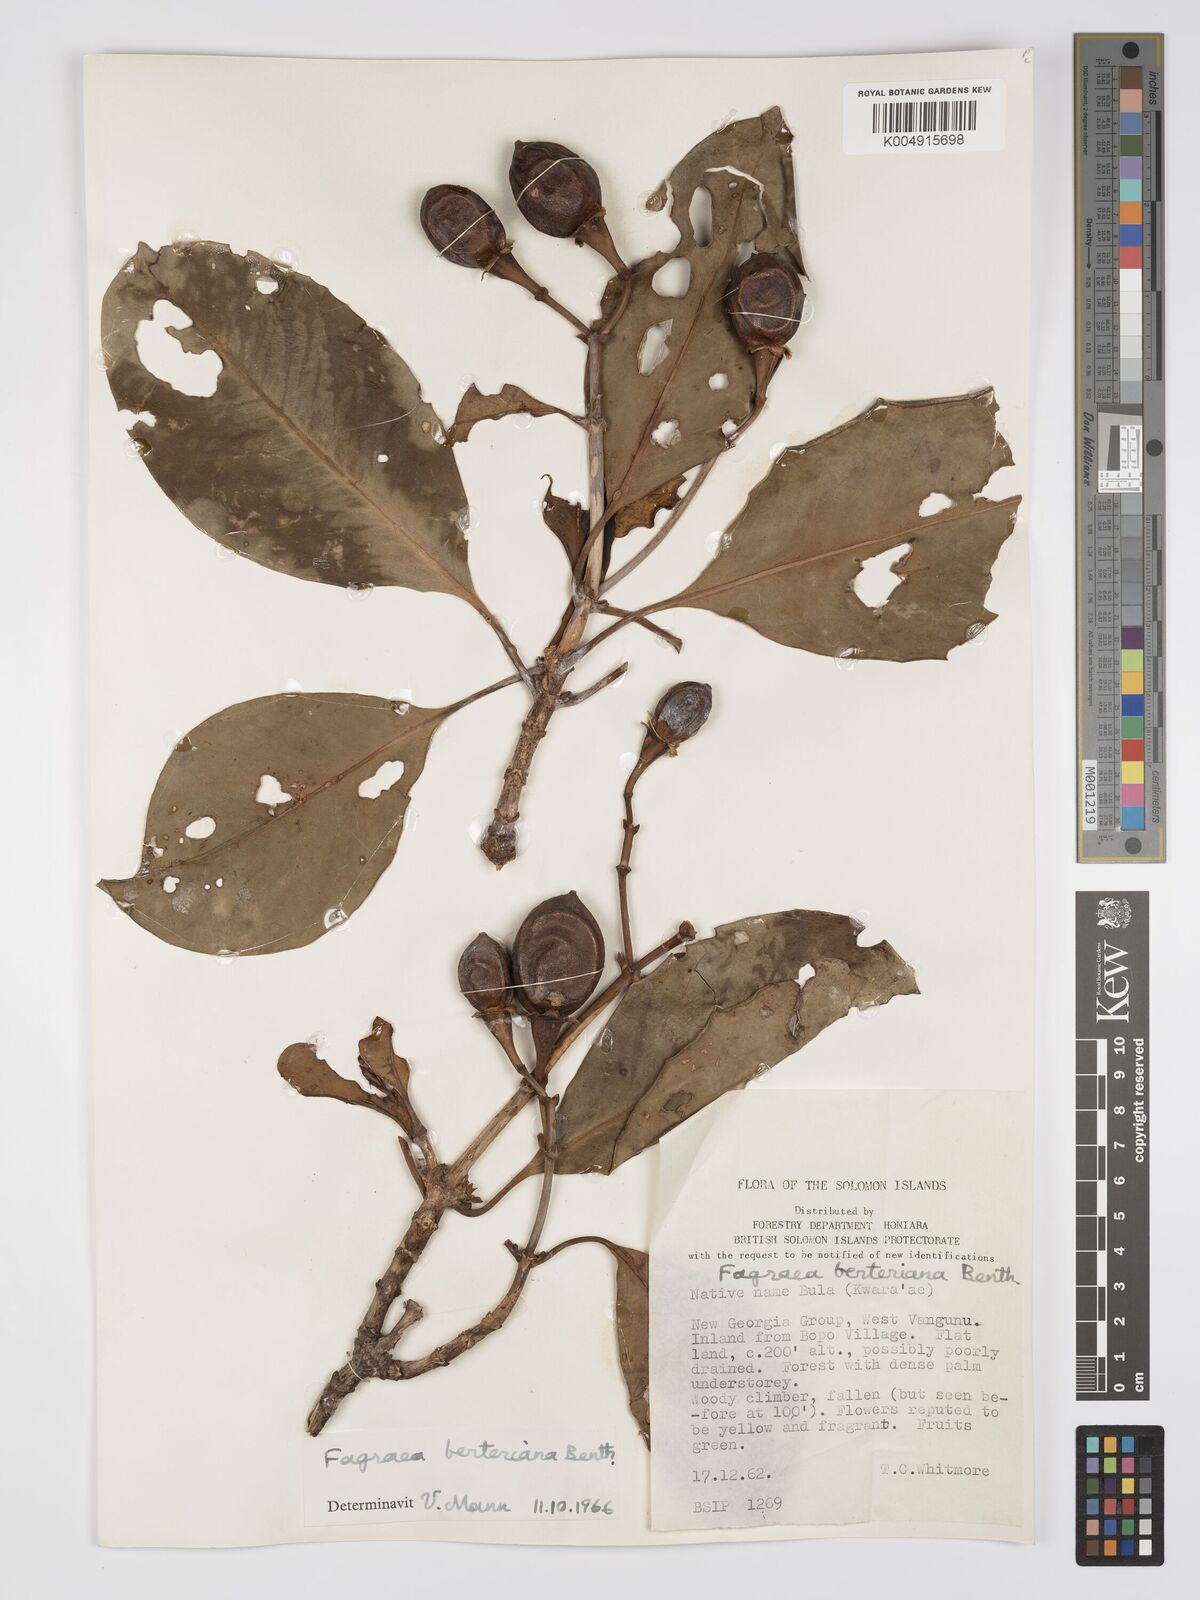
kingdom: Plantae
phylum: Tracheophyta
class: Magnoliopsida
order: Gentianales
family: Gentianaceae
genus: Fagraea
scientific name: Fagraea berteroana
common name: Cape jitta
